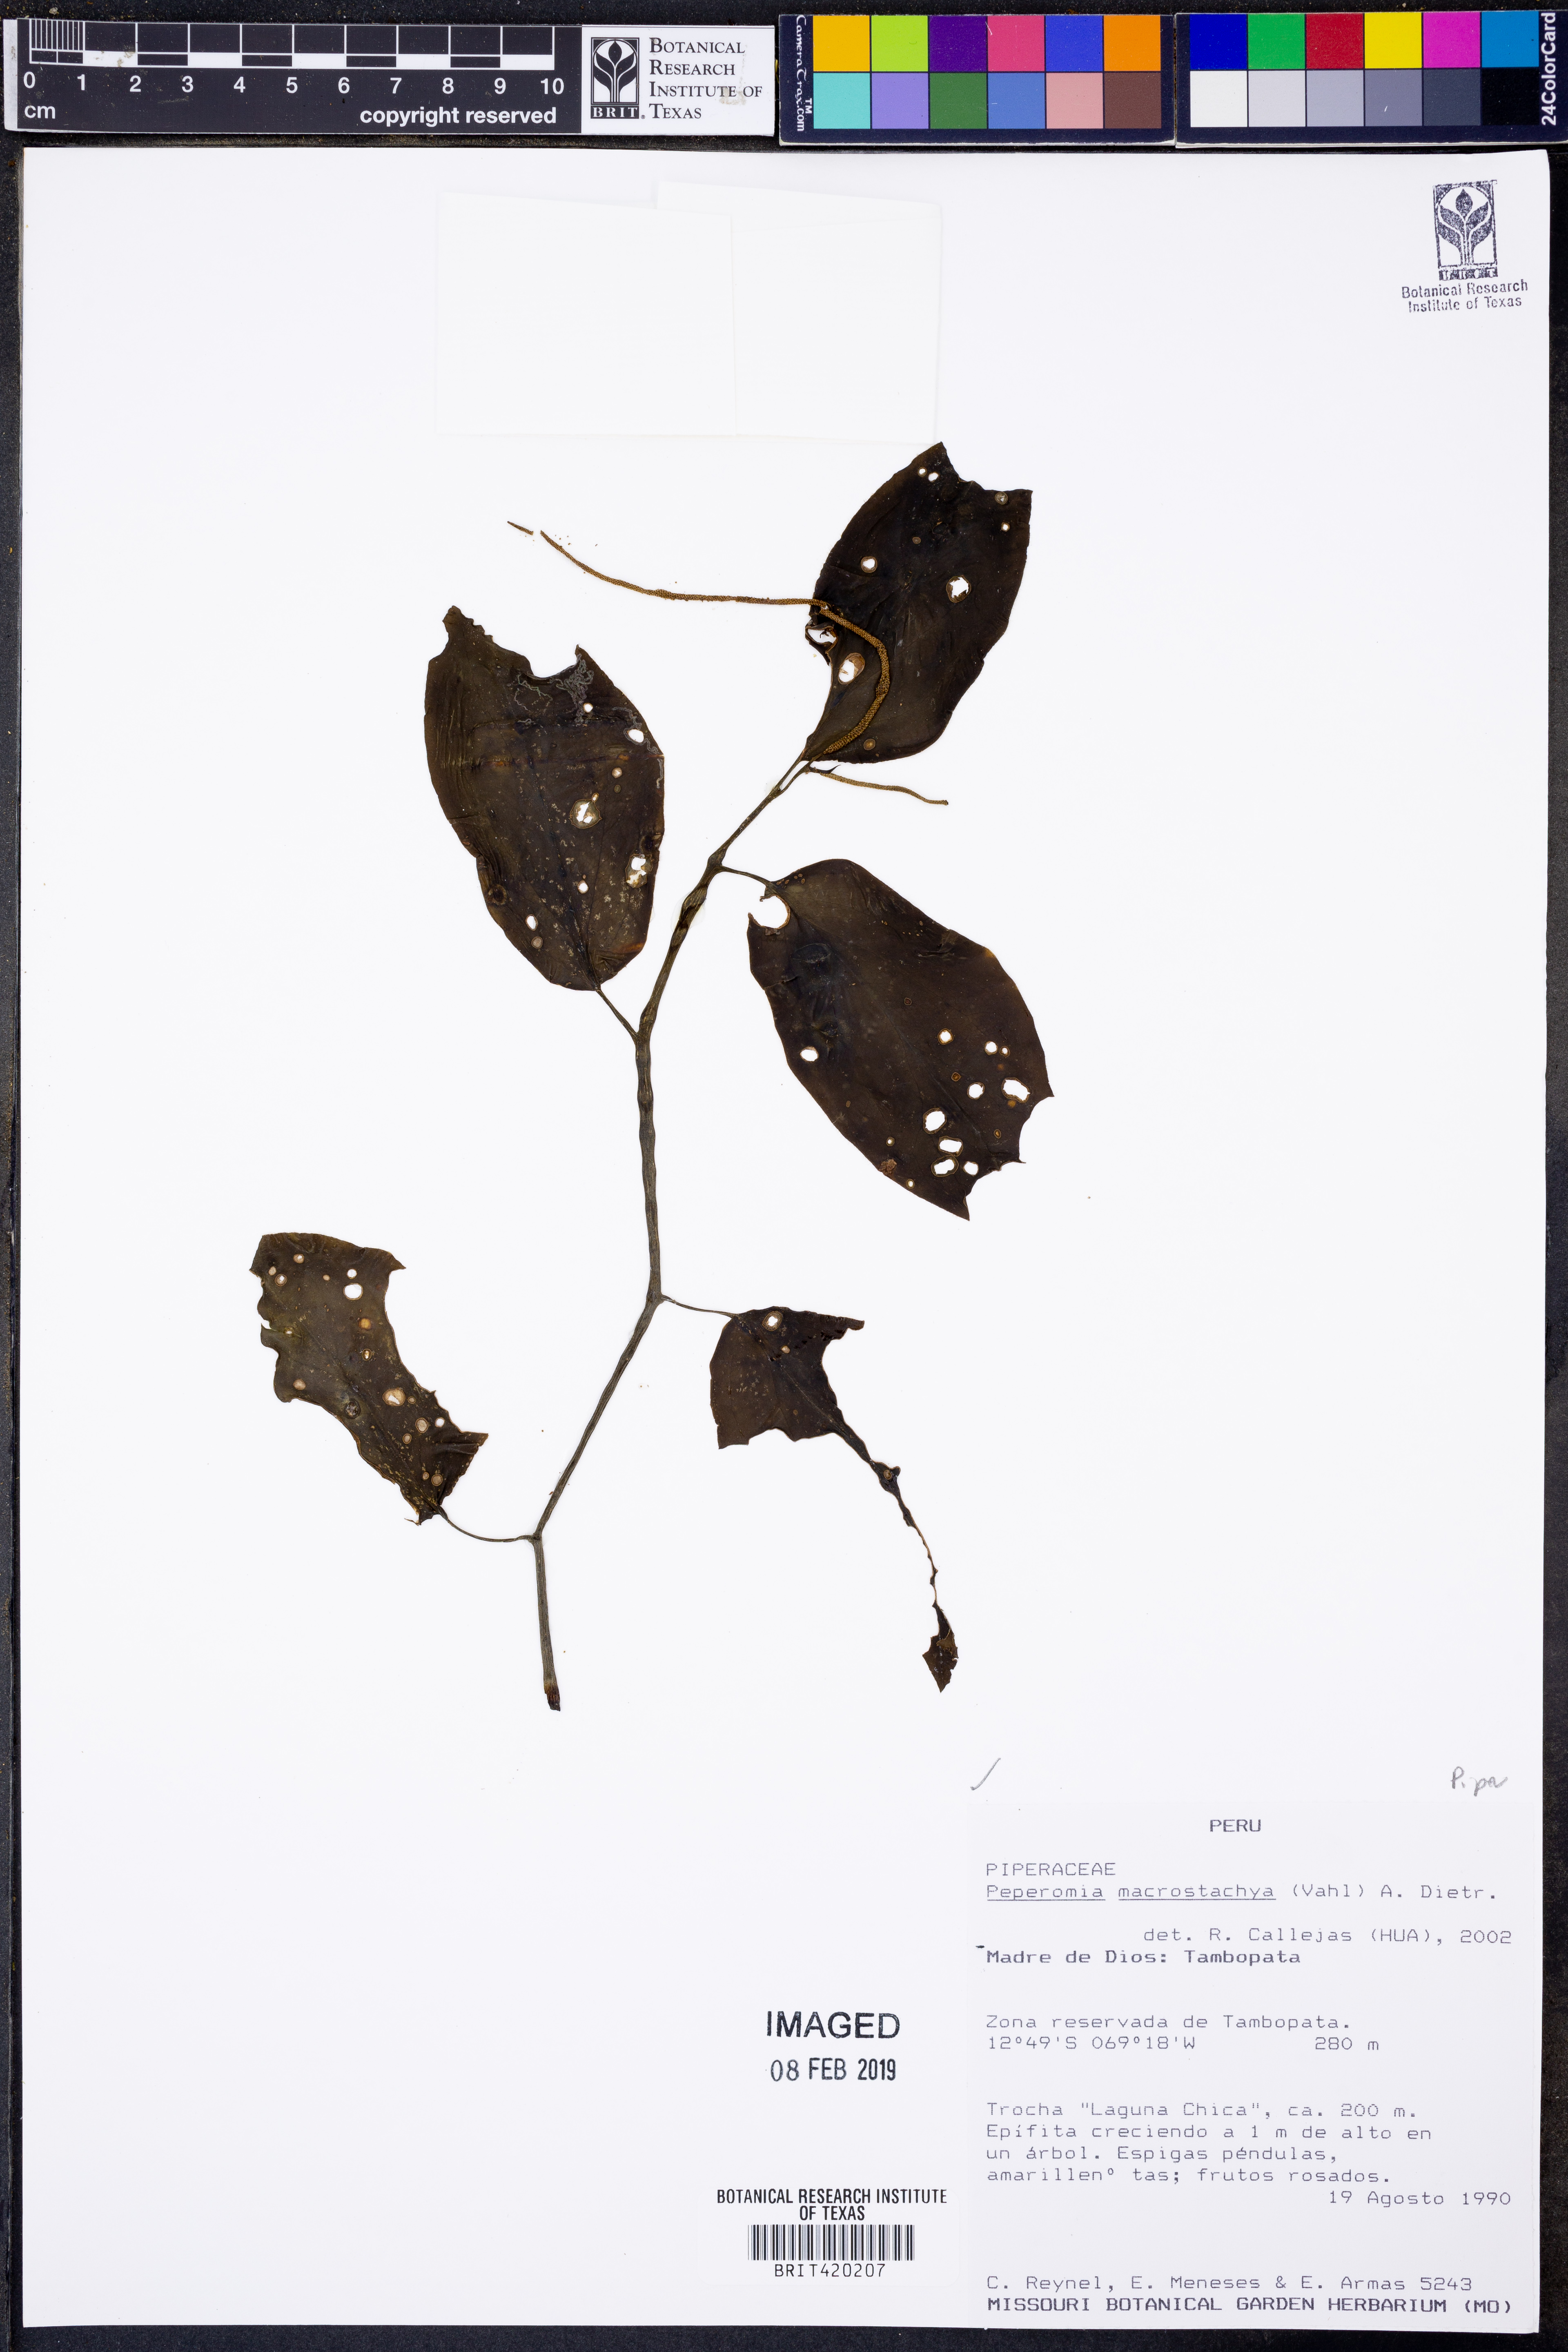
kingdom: Plantae
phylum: Tracheophyta
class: Magnoliopsida
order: Piperales
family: Piperaceae
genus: Peperomia
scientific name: Peperomia macrostachyos
